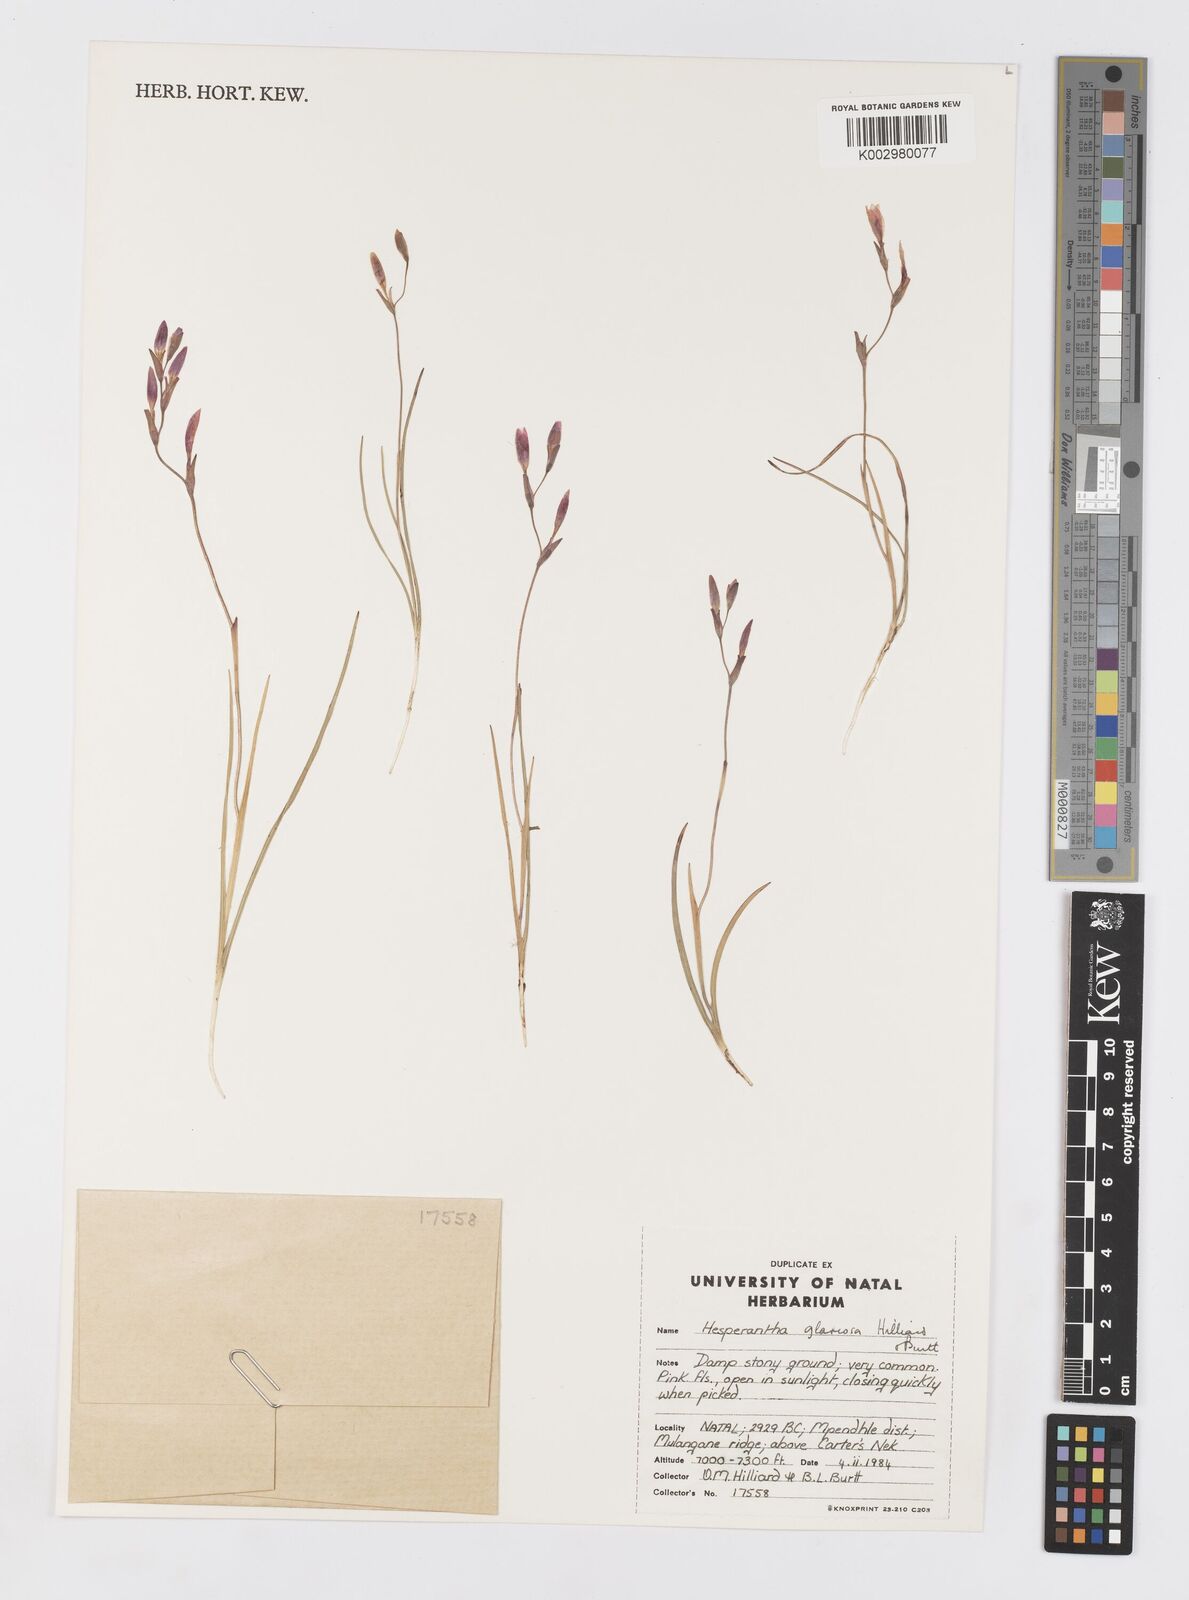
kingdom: Plantae
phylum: Tracheophyta
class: Liliopsida
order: Asparagales
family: Iridaceae
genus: Hesperantha
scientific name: Hesperantha glareosa
